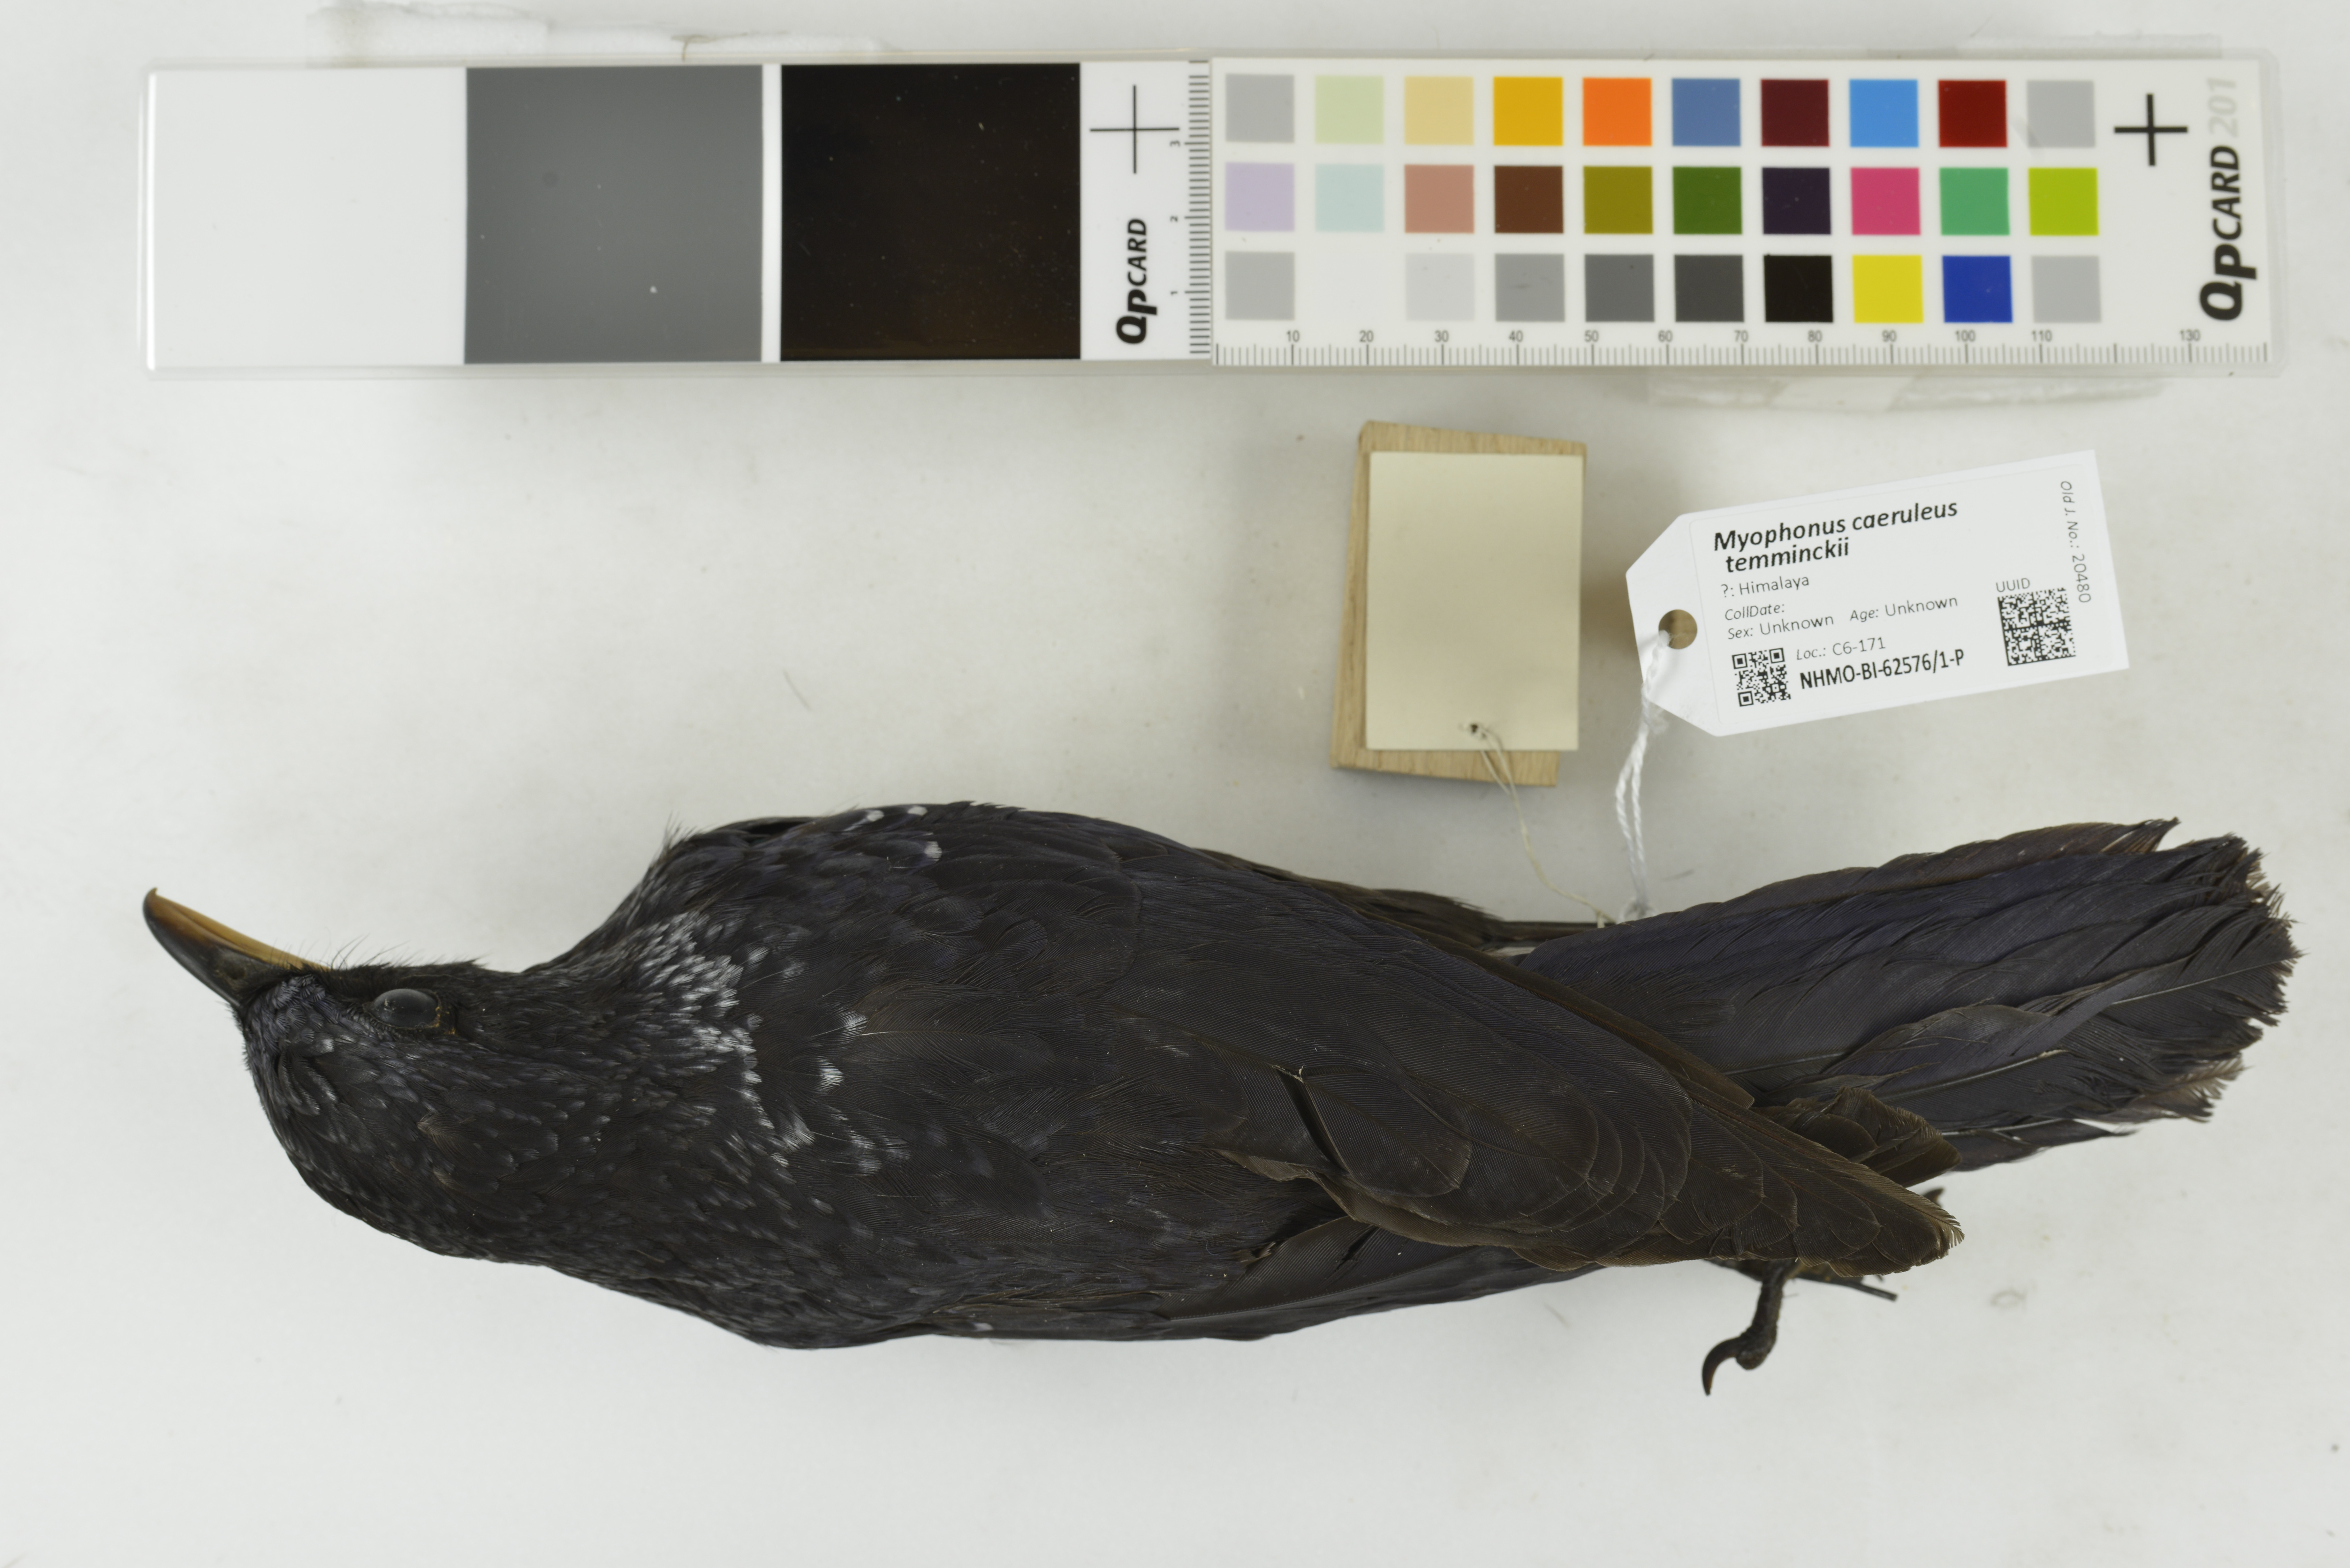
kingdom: Animalia
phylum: Chordata
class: Aves
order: Passeriformes
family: Muscicapidae
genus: Myophonus
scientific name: Myophonus caeruleus
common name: Blue whistling-thrush
